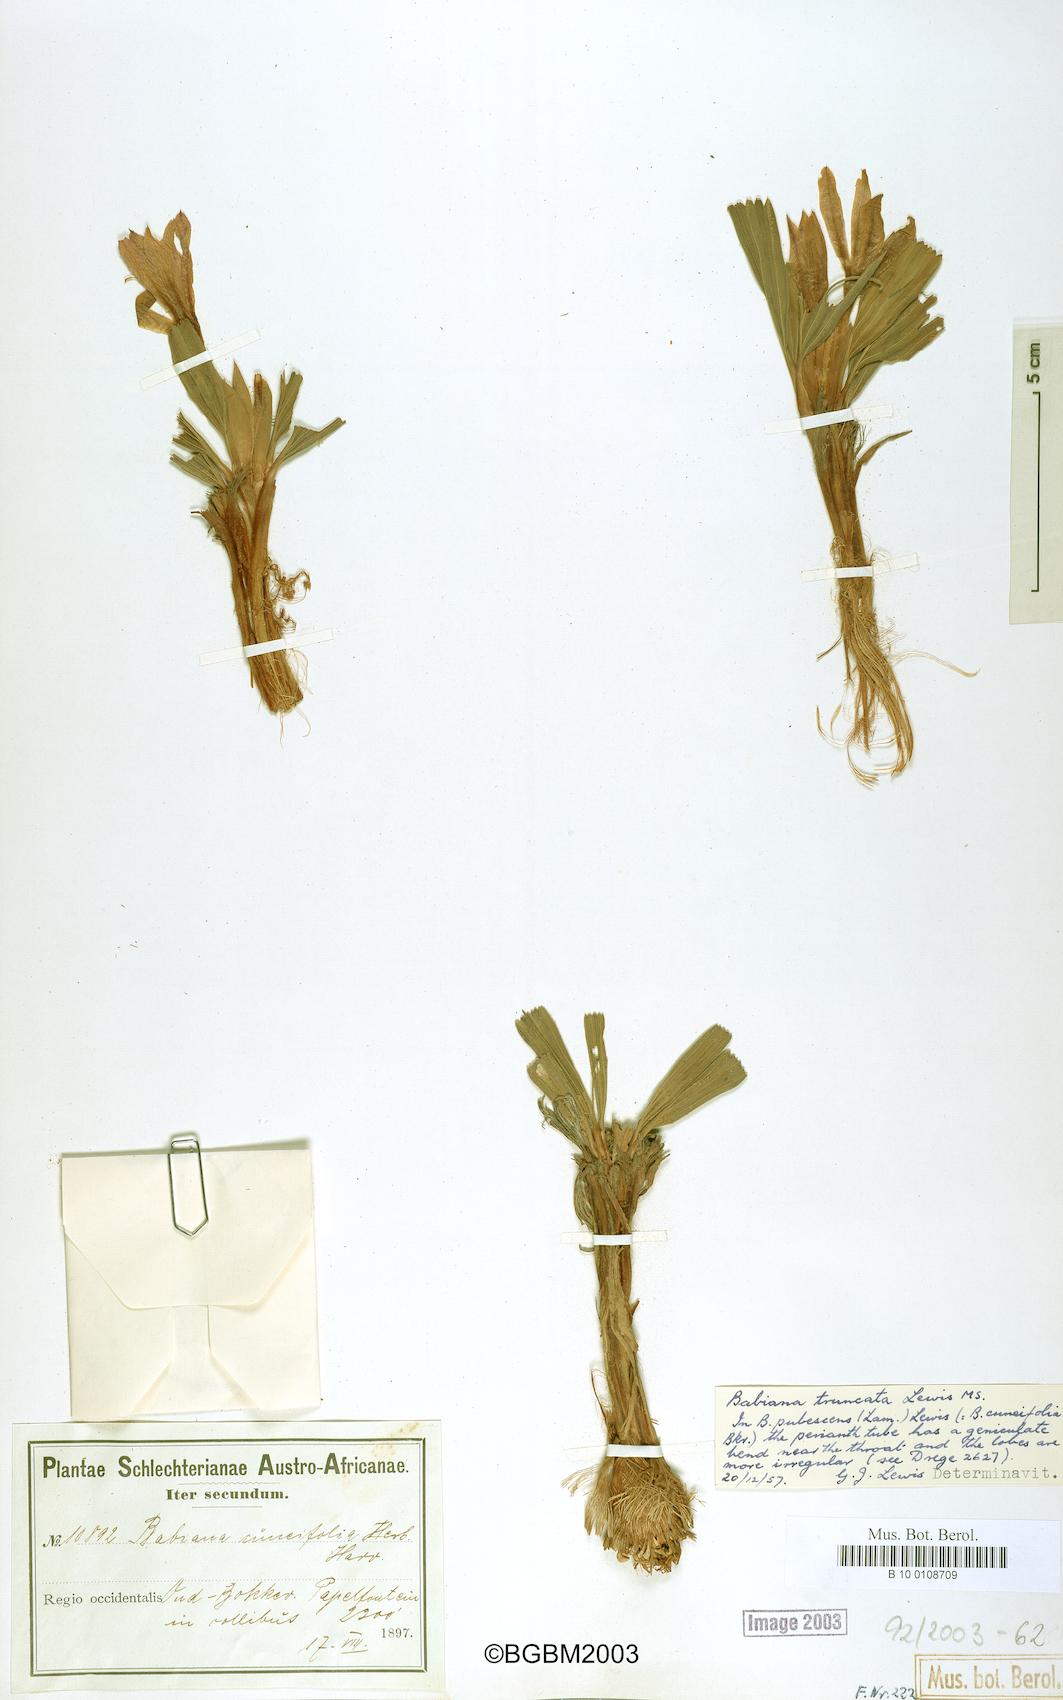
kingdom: Plantae
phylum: Tracheophyta
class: Liliopsida
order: Asparagales
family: Iridaceae
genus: Babiana
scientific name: Babiana flabellifolia
